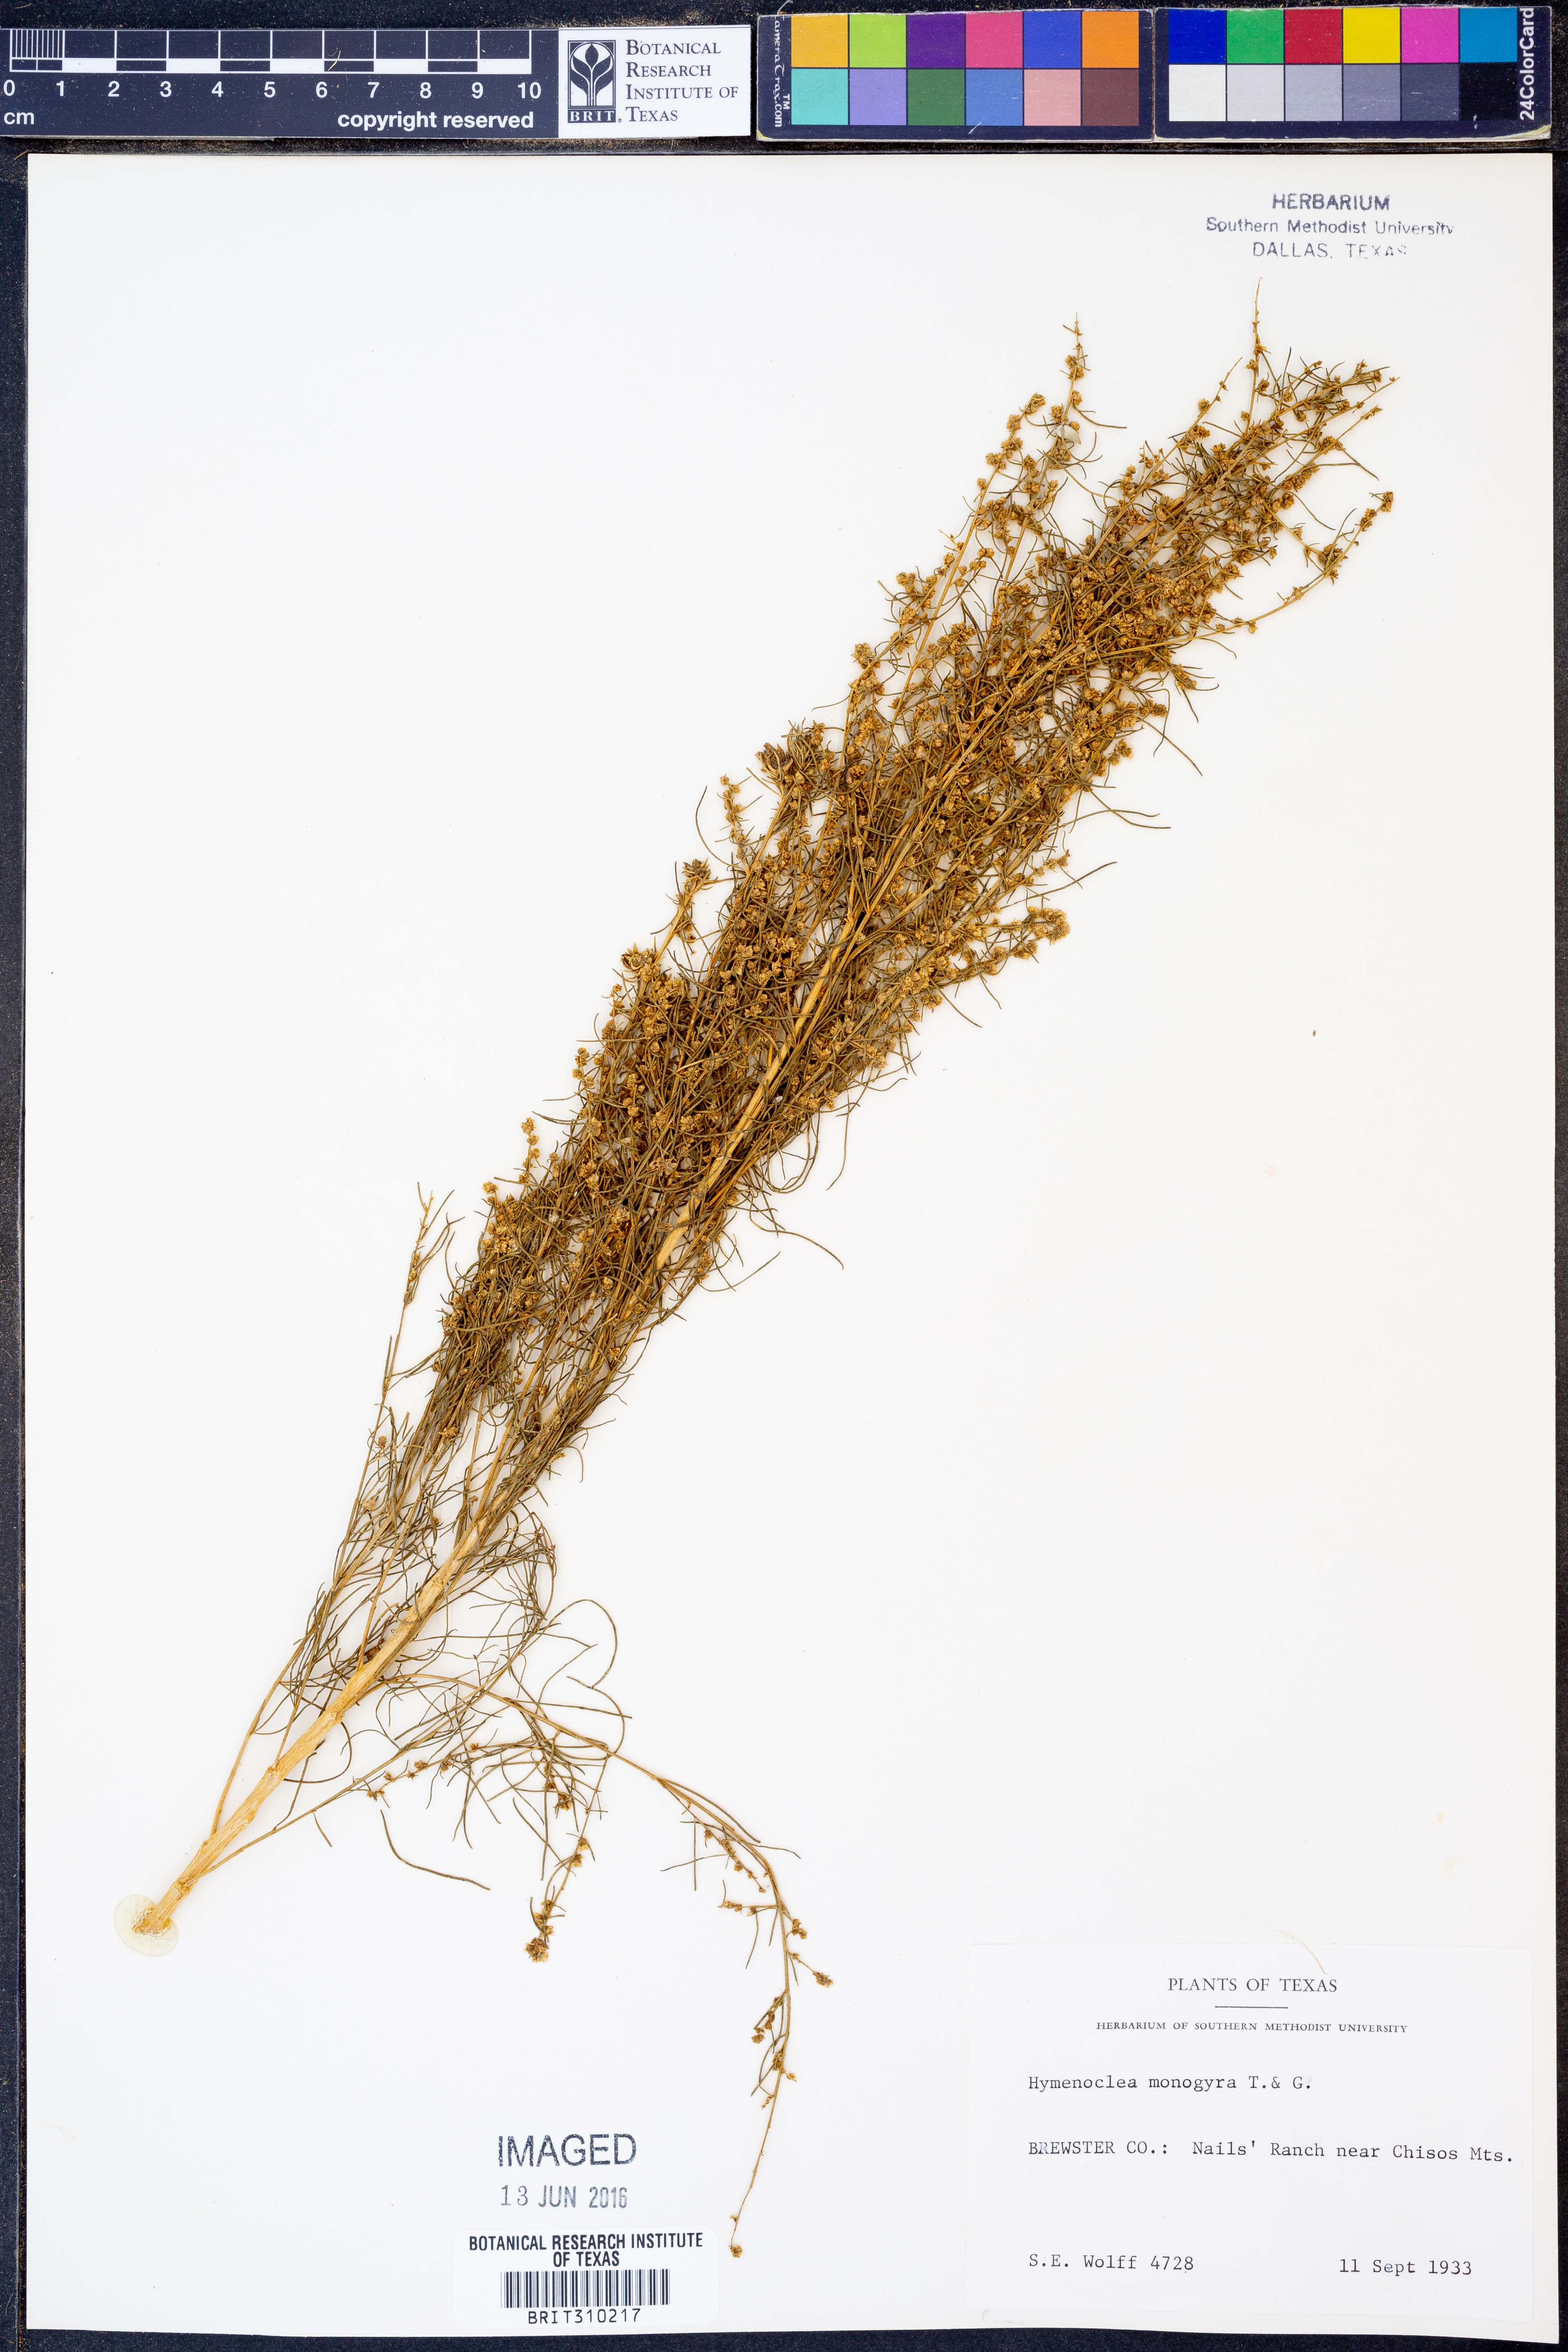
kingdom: Plantae
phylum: Tracheophyta
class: Magnoliopsida
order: Asterales
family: Asteraceae
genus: Ambrosia
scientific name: Ambrosia monogyra
